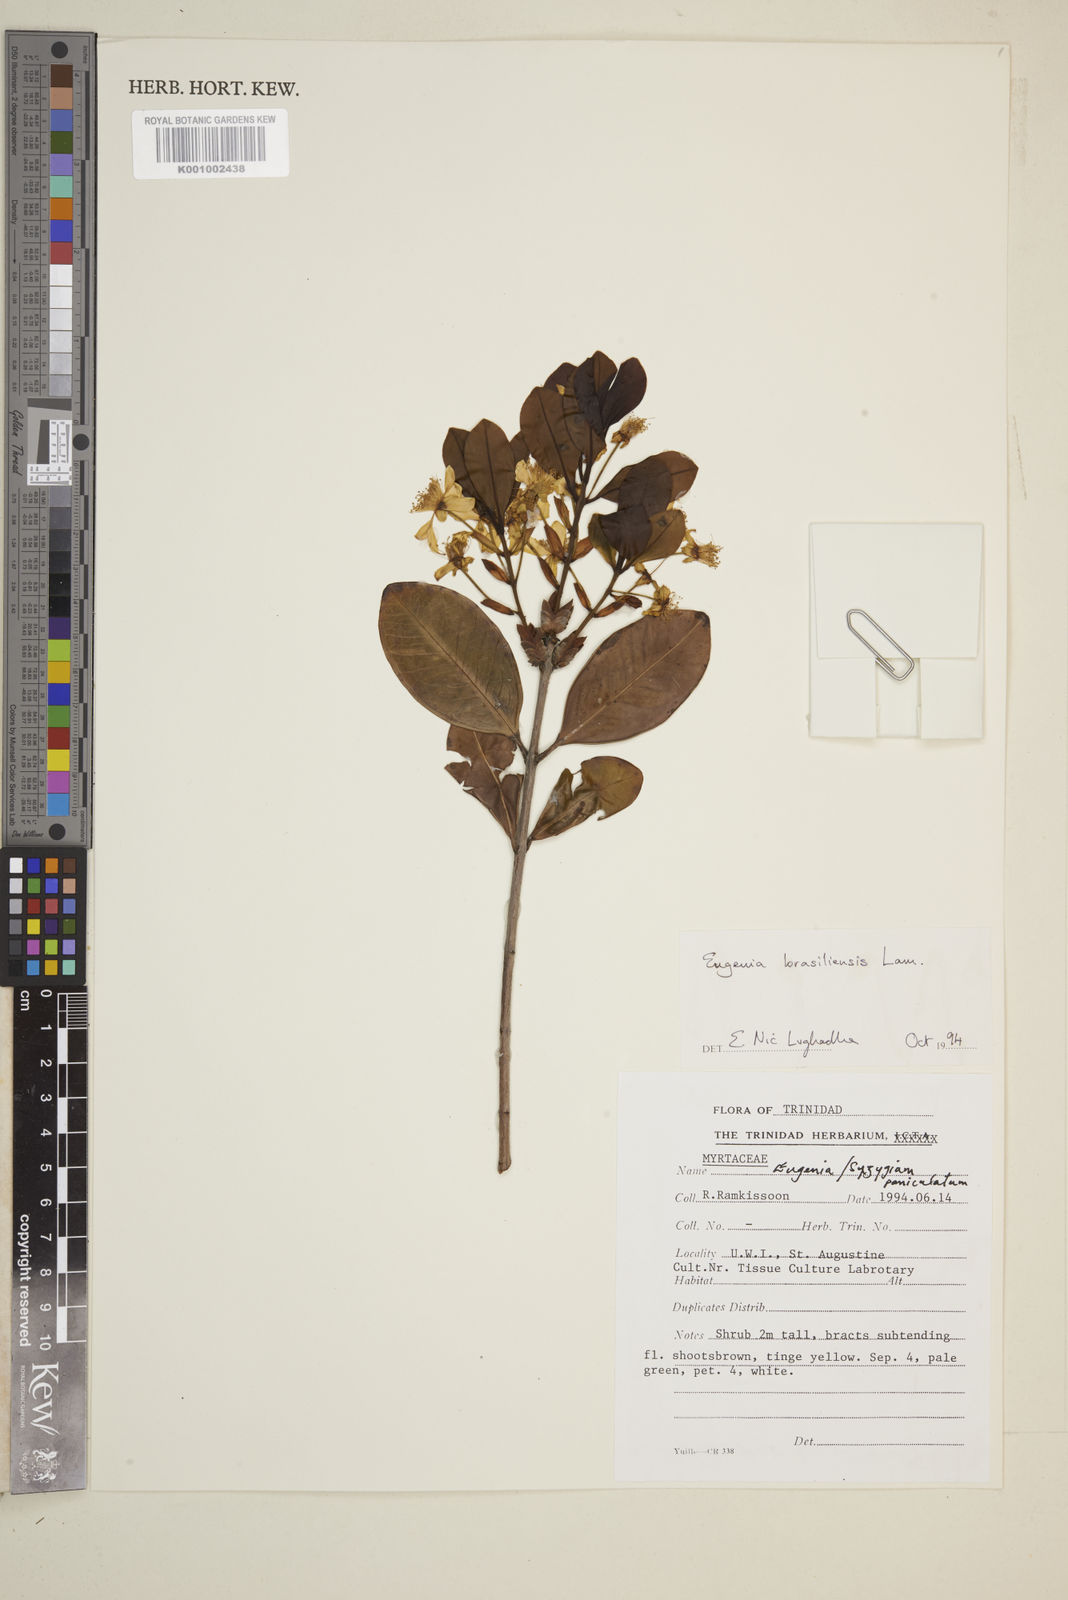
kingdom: Plantae
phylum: Tracheophyta
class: Magnoliopsida
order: Myrtales
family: Myrtaceae
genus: Eugenia
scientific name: Eugenia brasiliensis
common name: Grumichama
